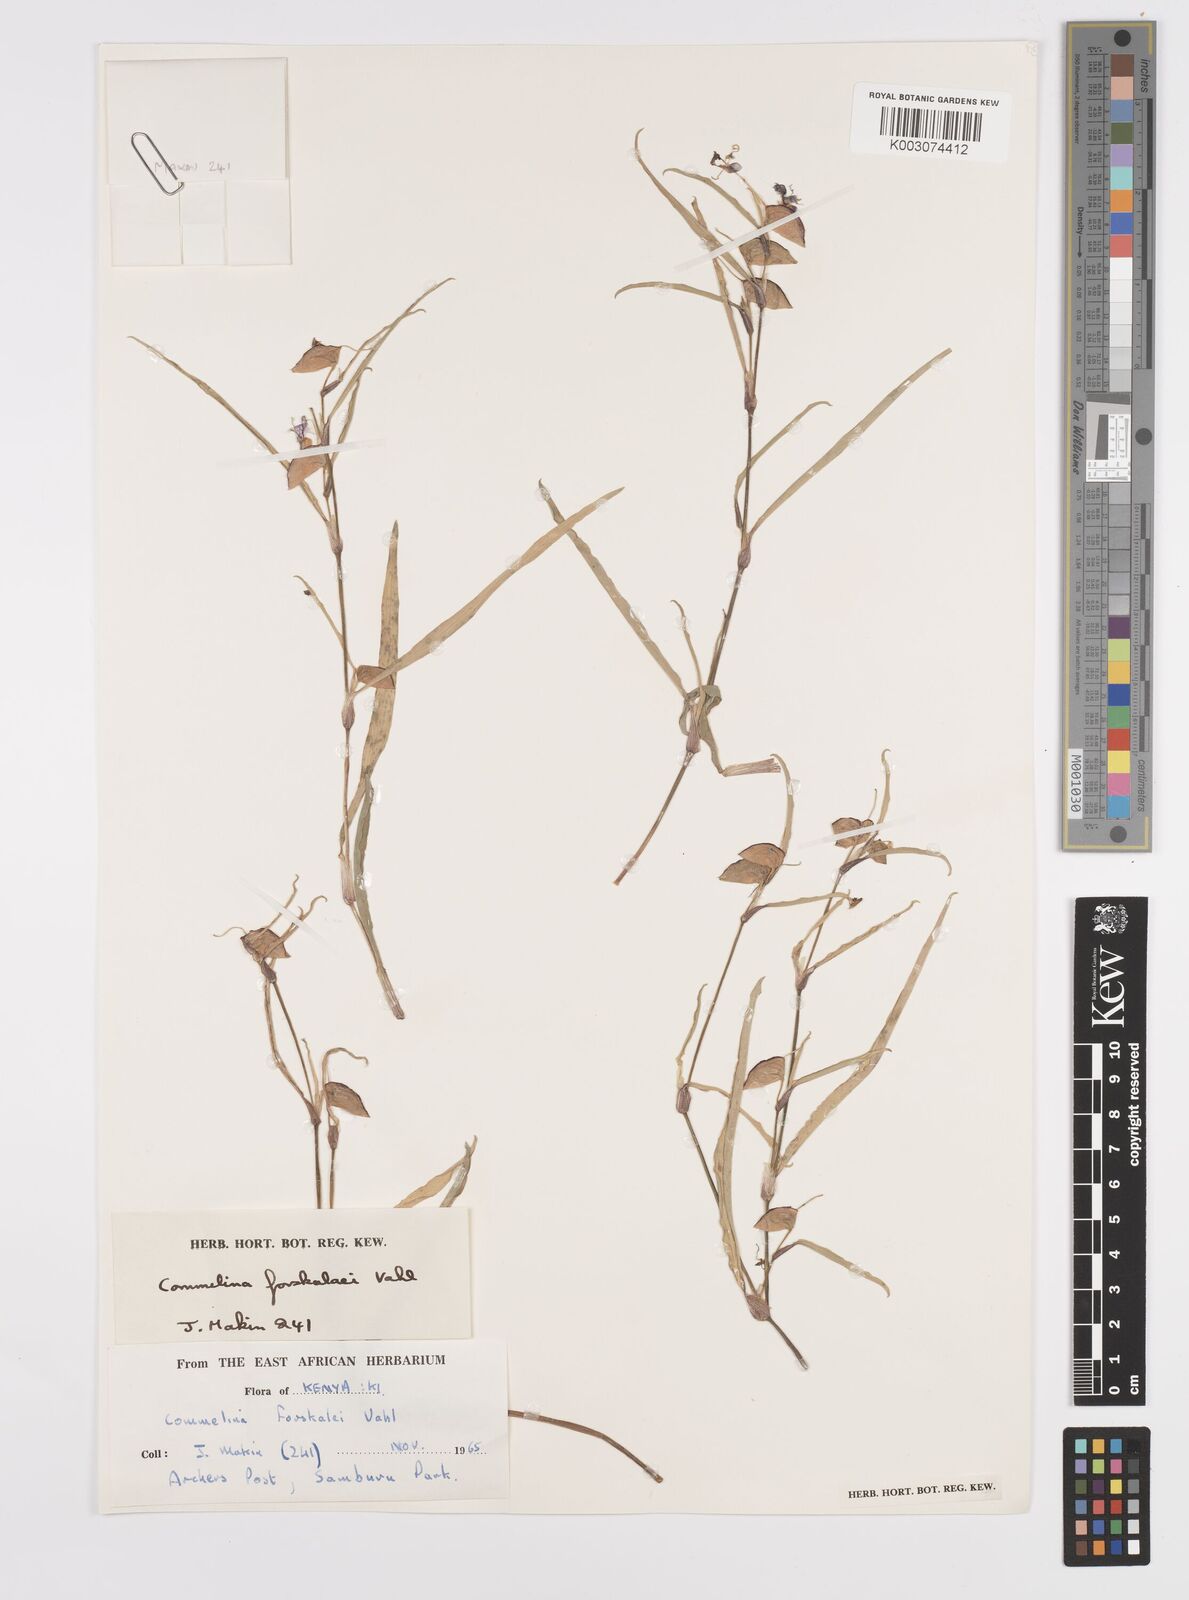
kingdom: Plantae
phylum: Tracheophyta
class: Liliopsida
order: Commelinales
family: Commelinaceae
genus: Commelina
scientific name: Commelina forskaolii
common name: Rat's ear
